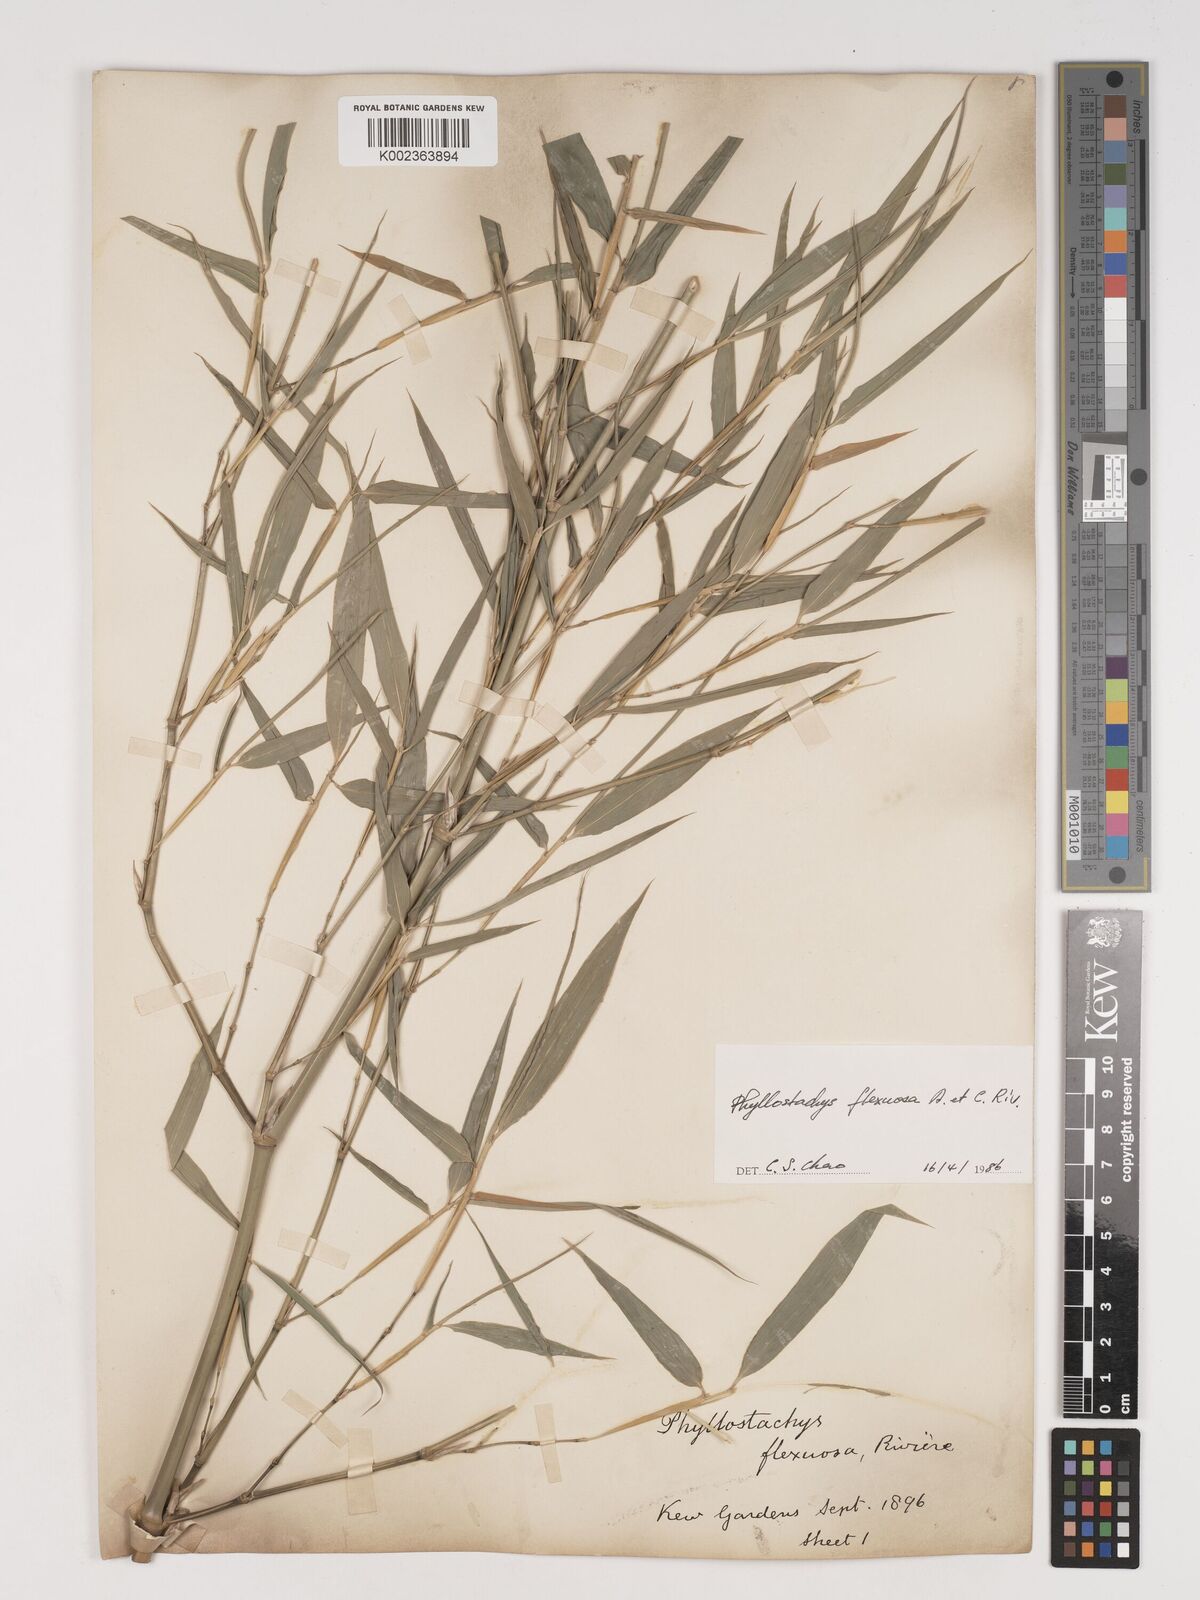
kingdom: Plantae
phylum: Tracheophyta
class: Liliopsida
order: Poales
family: Poaceae
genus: Phyllostachys
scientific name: Phyllostachys flexuosa
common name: Drooping timber bamboo
